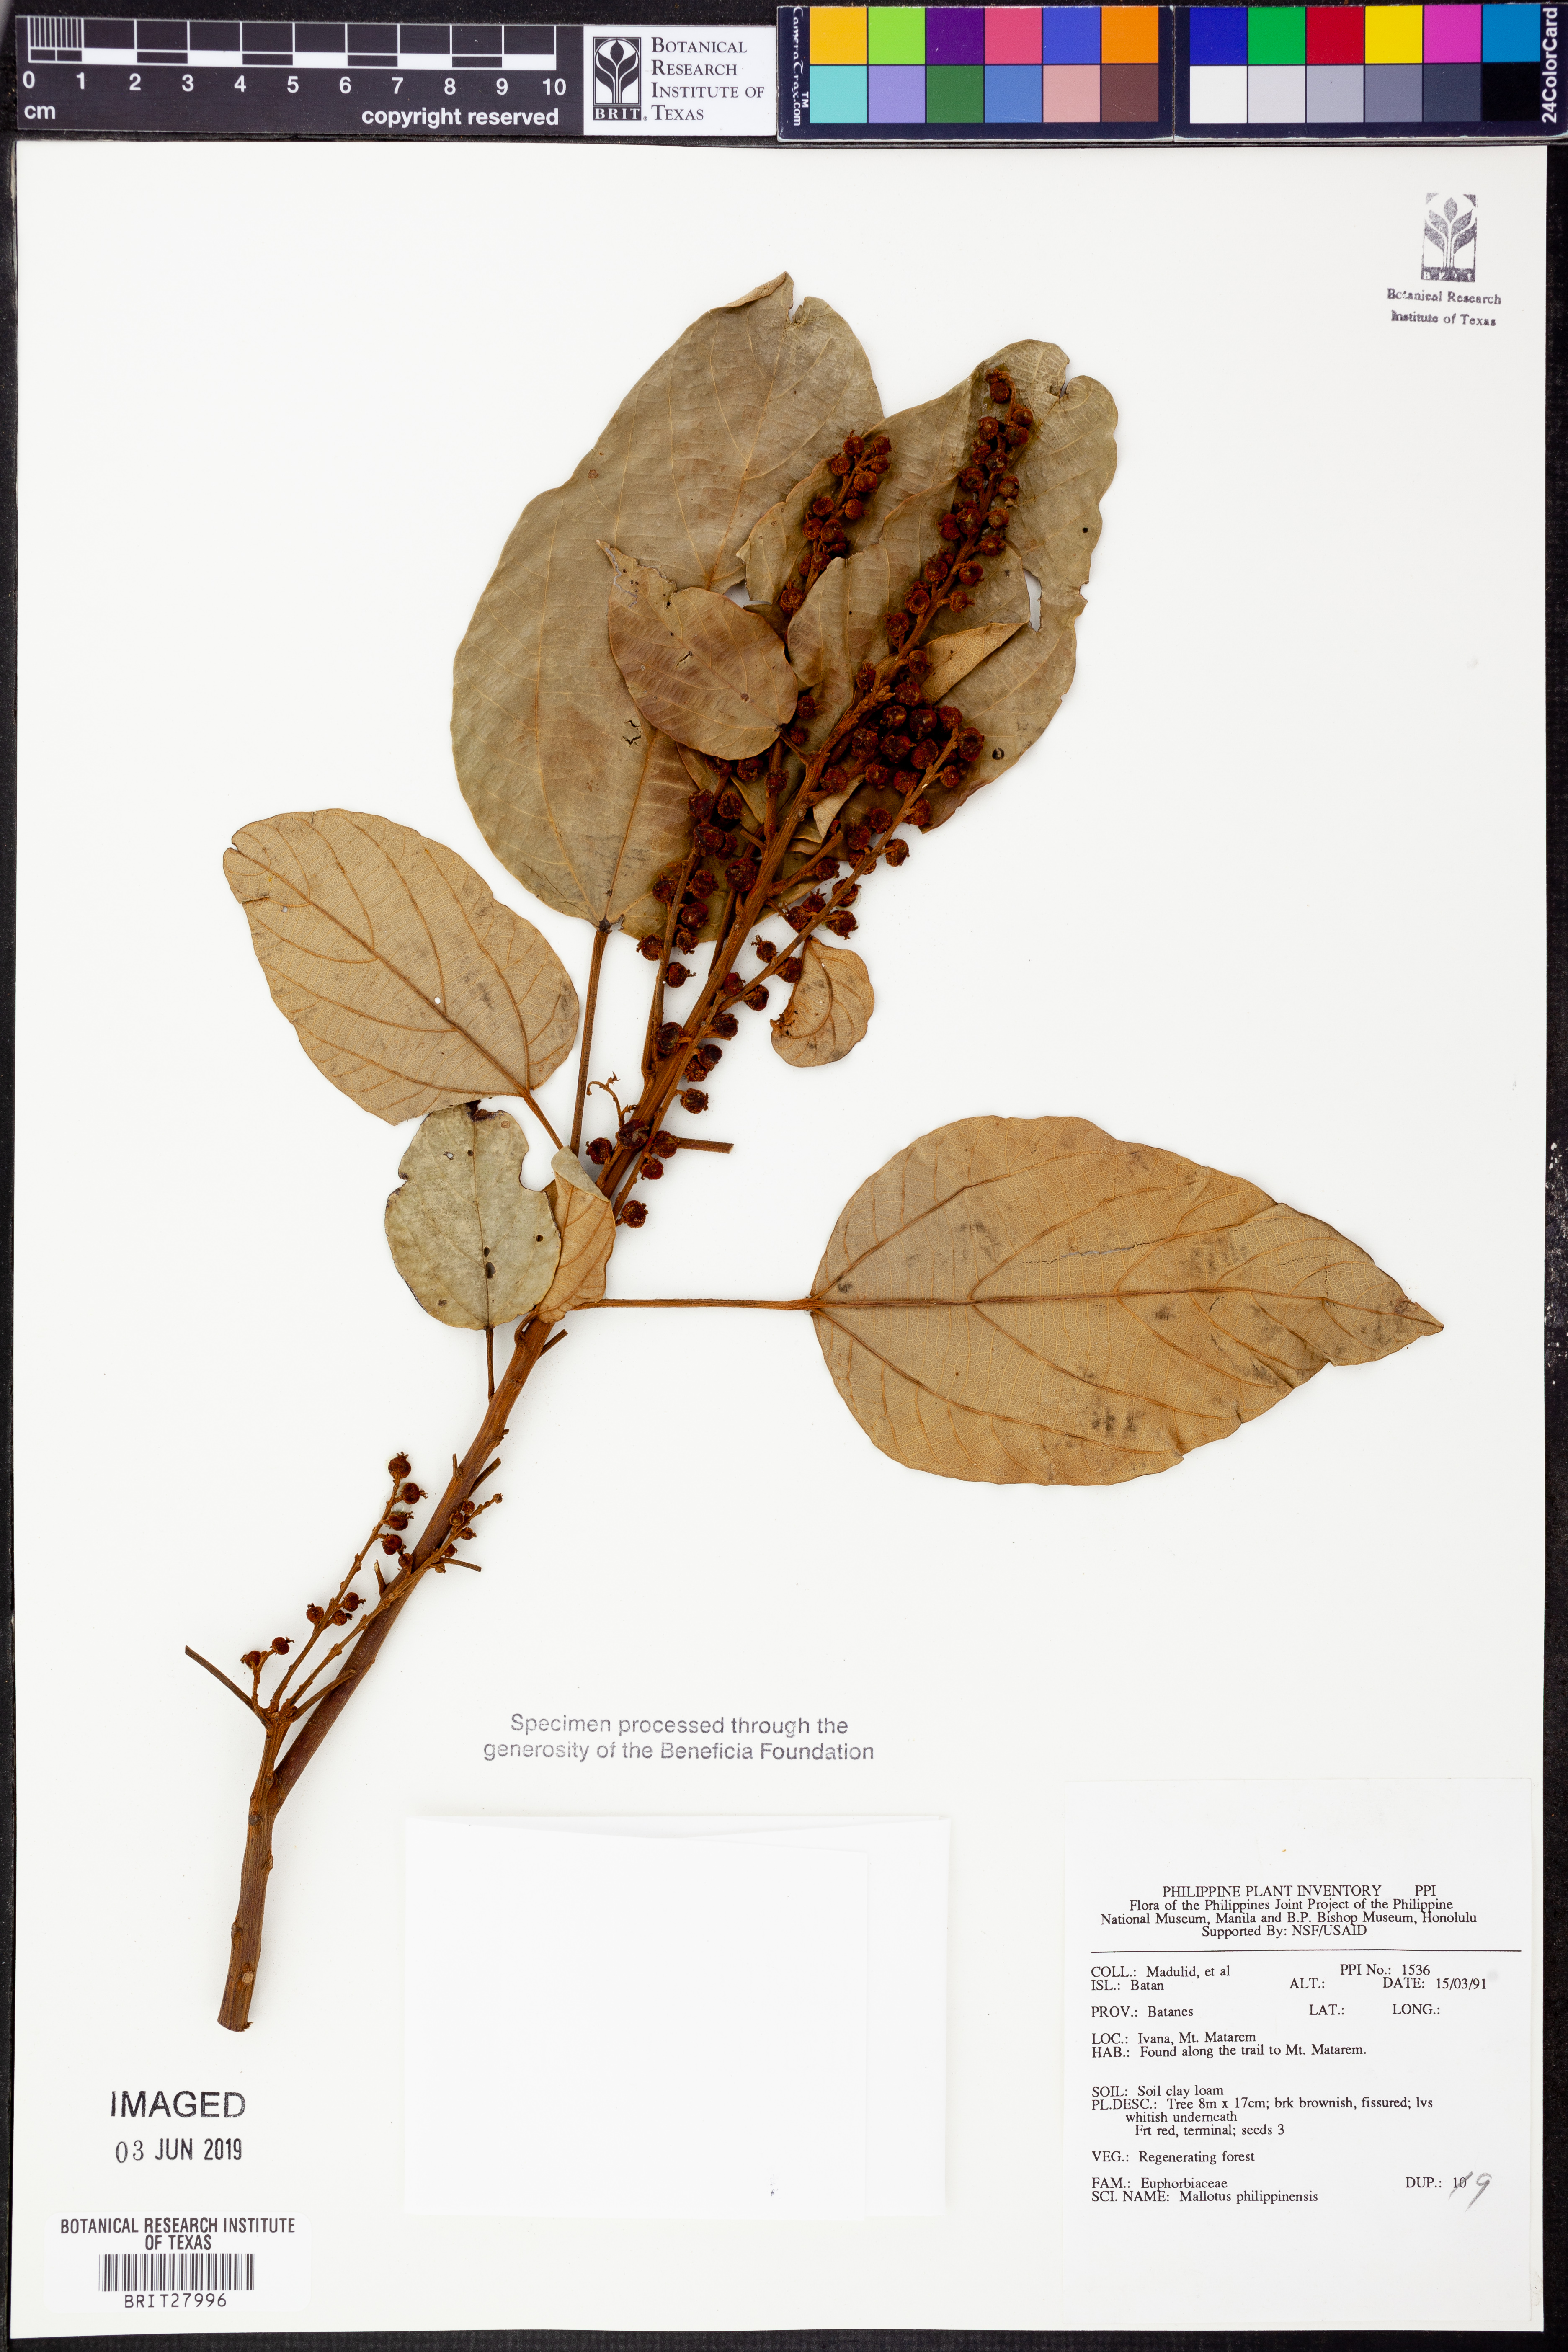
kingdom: Plantae
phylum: Tracheophyta
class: Magnoliopsida
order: Malpighiales
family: Euphorbiaceae
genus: Mallotus
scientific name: Mallotus philippensis
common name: Kamala tree
